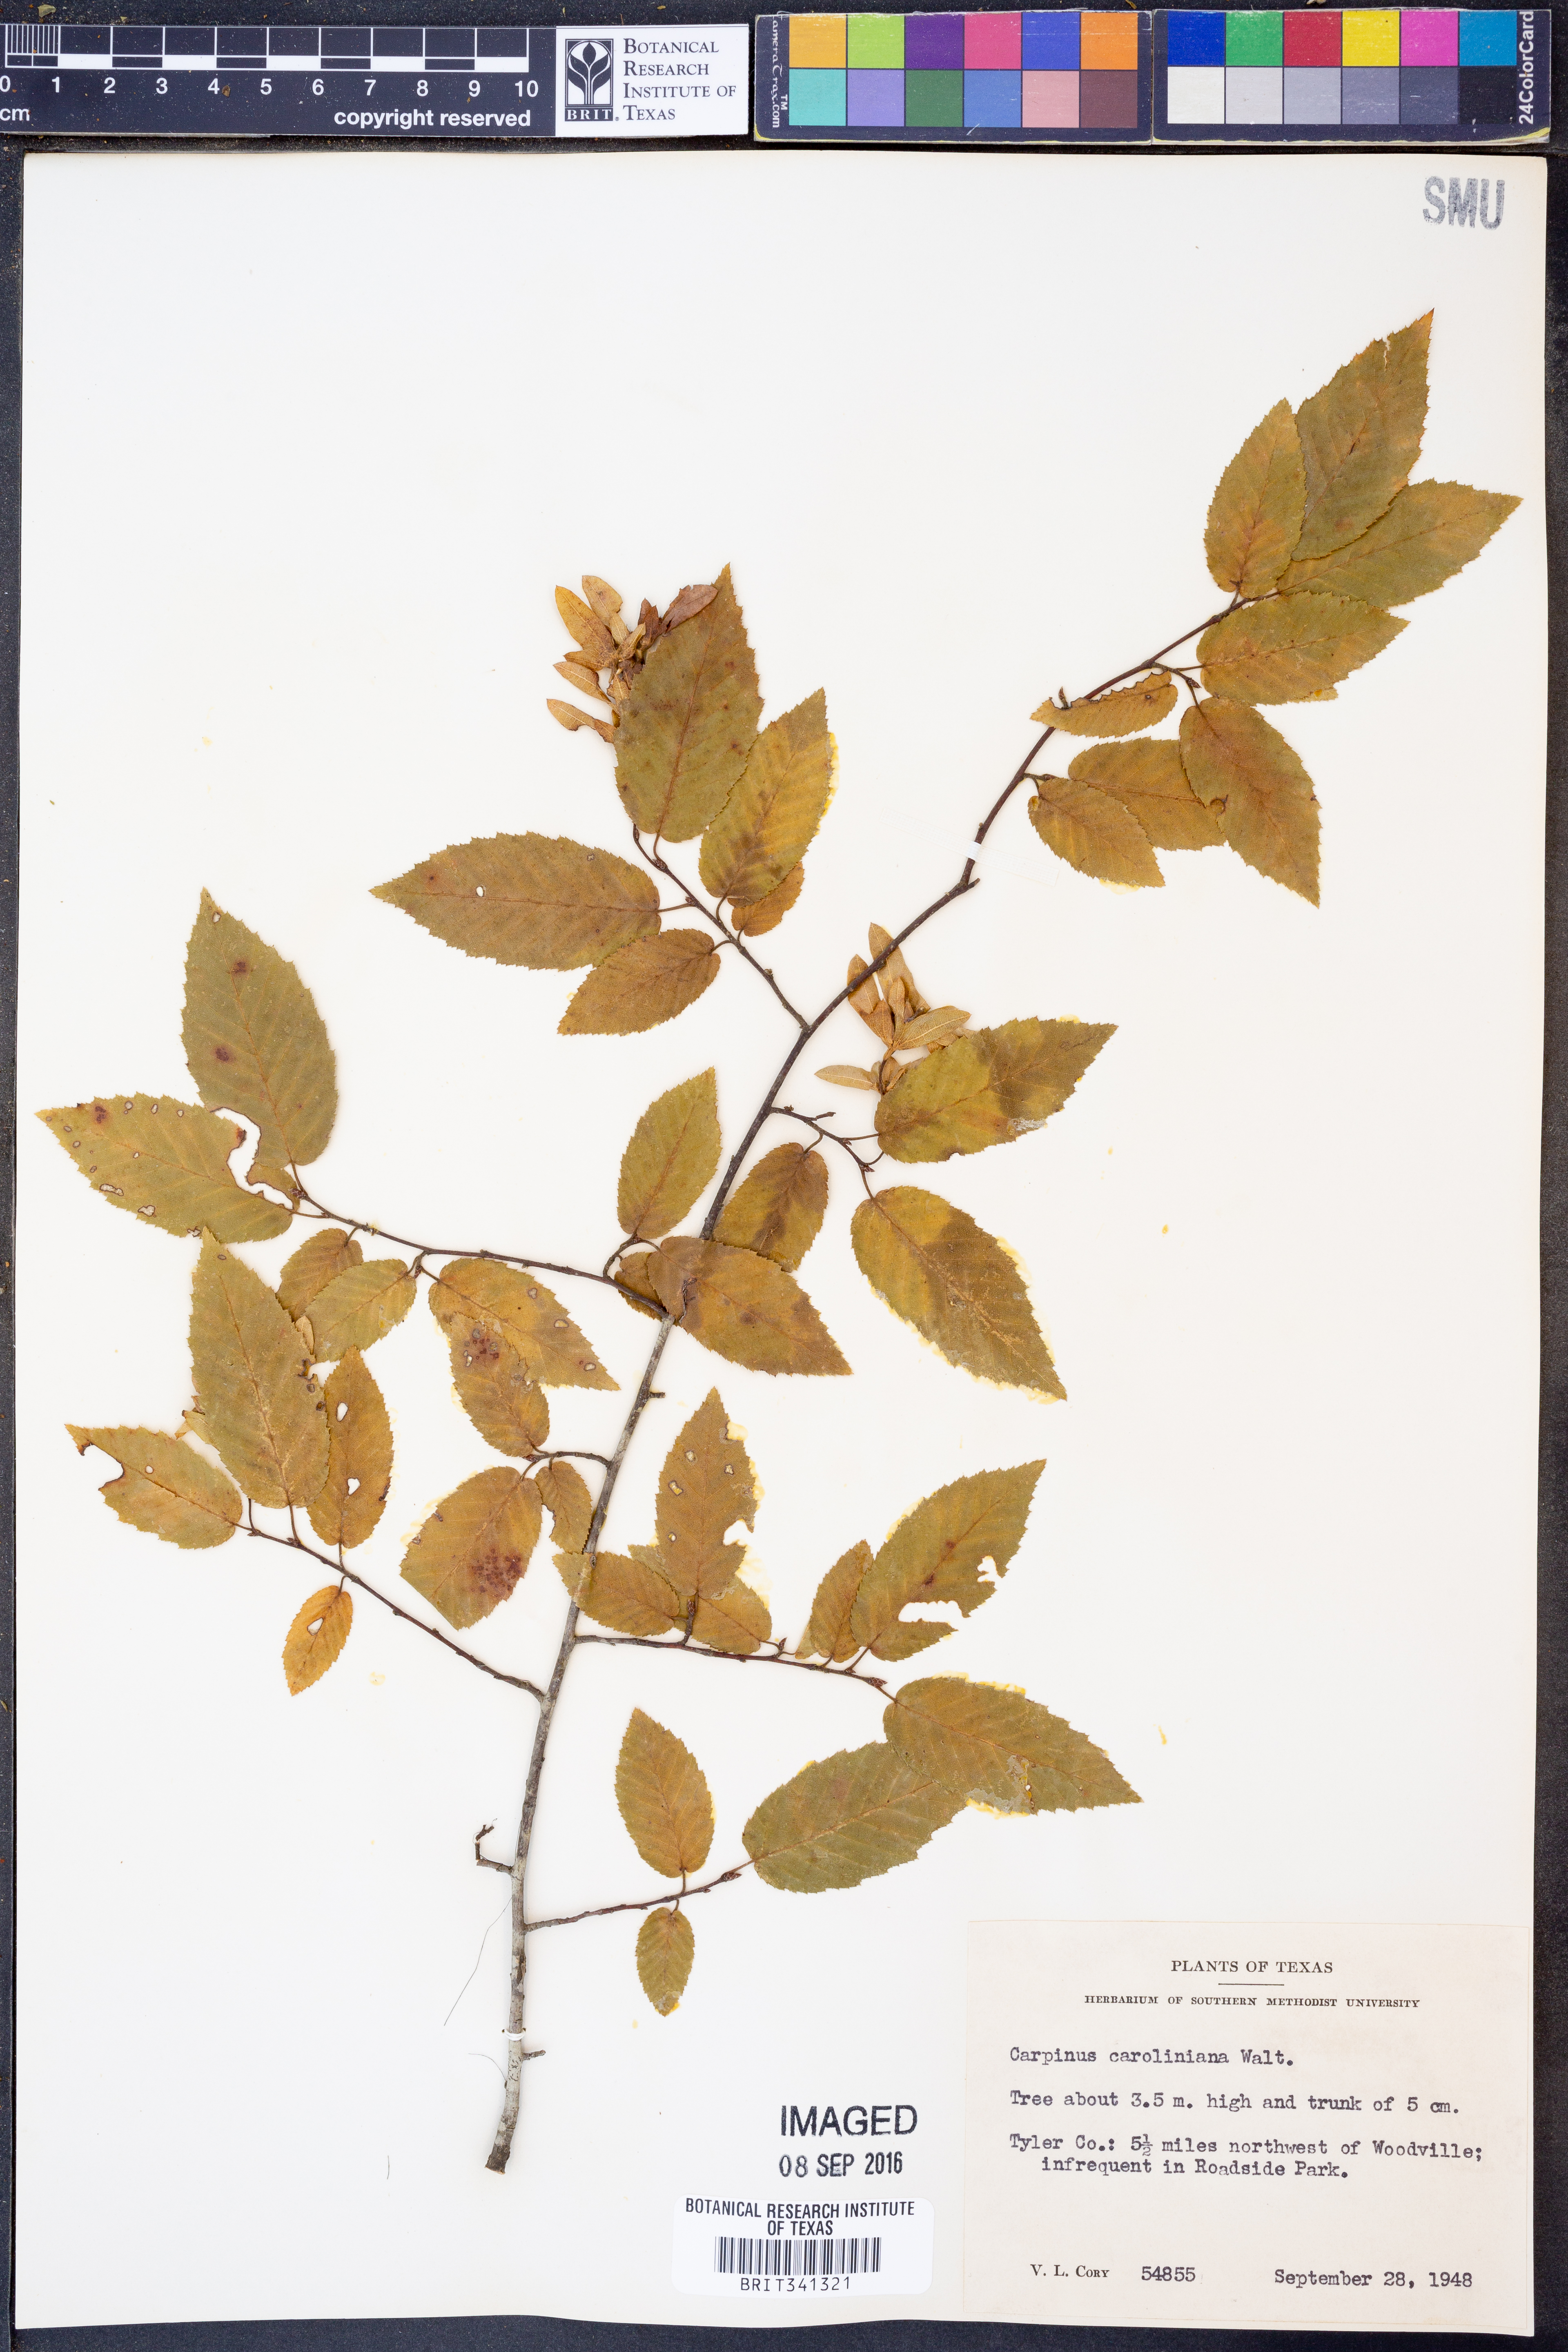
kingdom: Plantae
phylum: Tracheophyta
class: Magnoliopsida
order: Fagales
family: Betulaceae
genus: Carpinus
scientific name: Carpinus caroliniana
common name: American hornbeam
